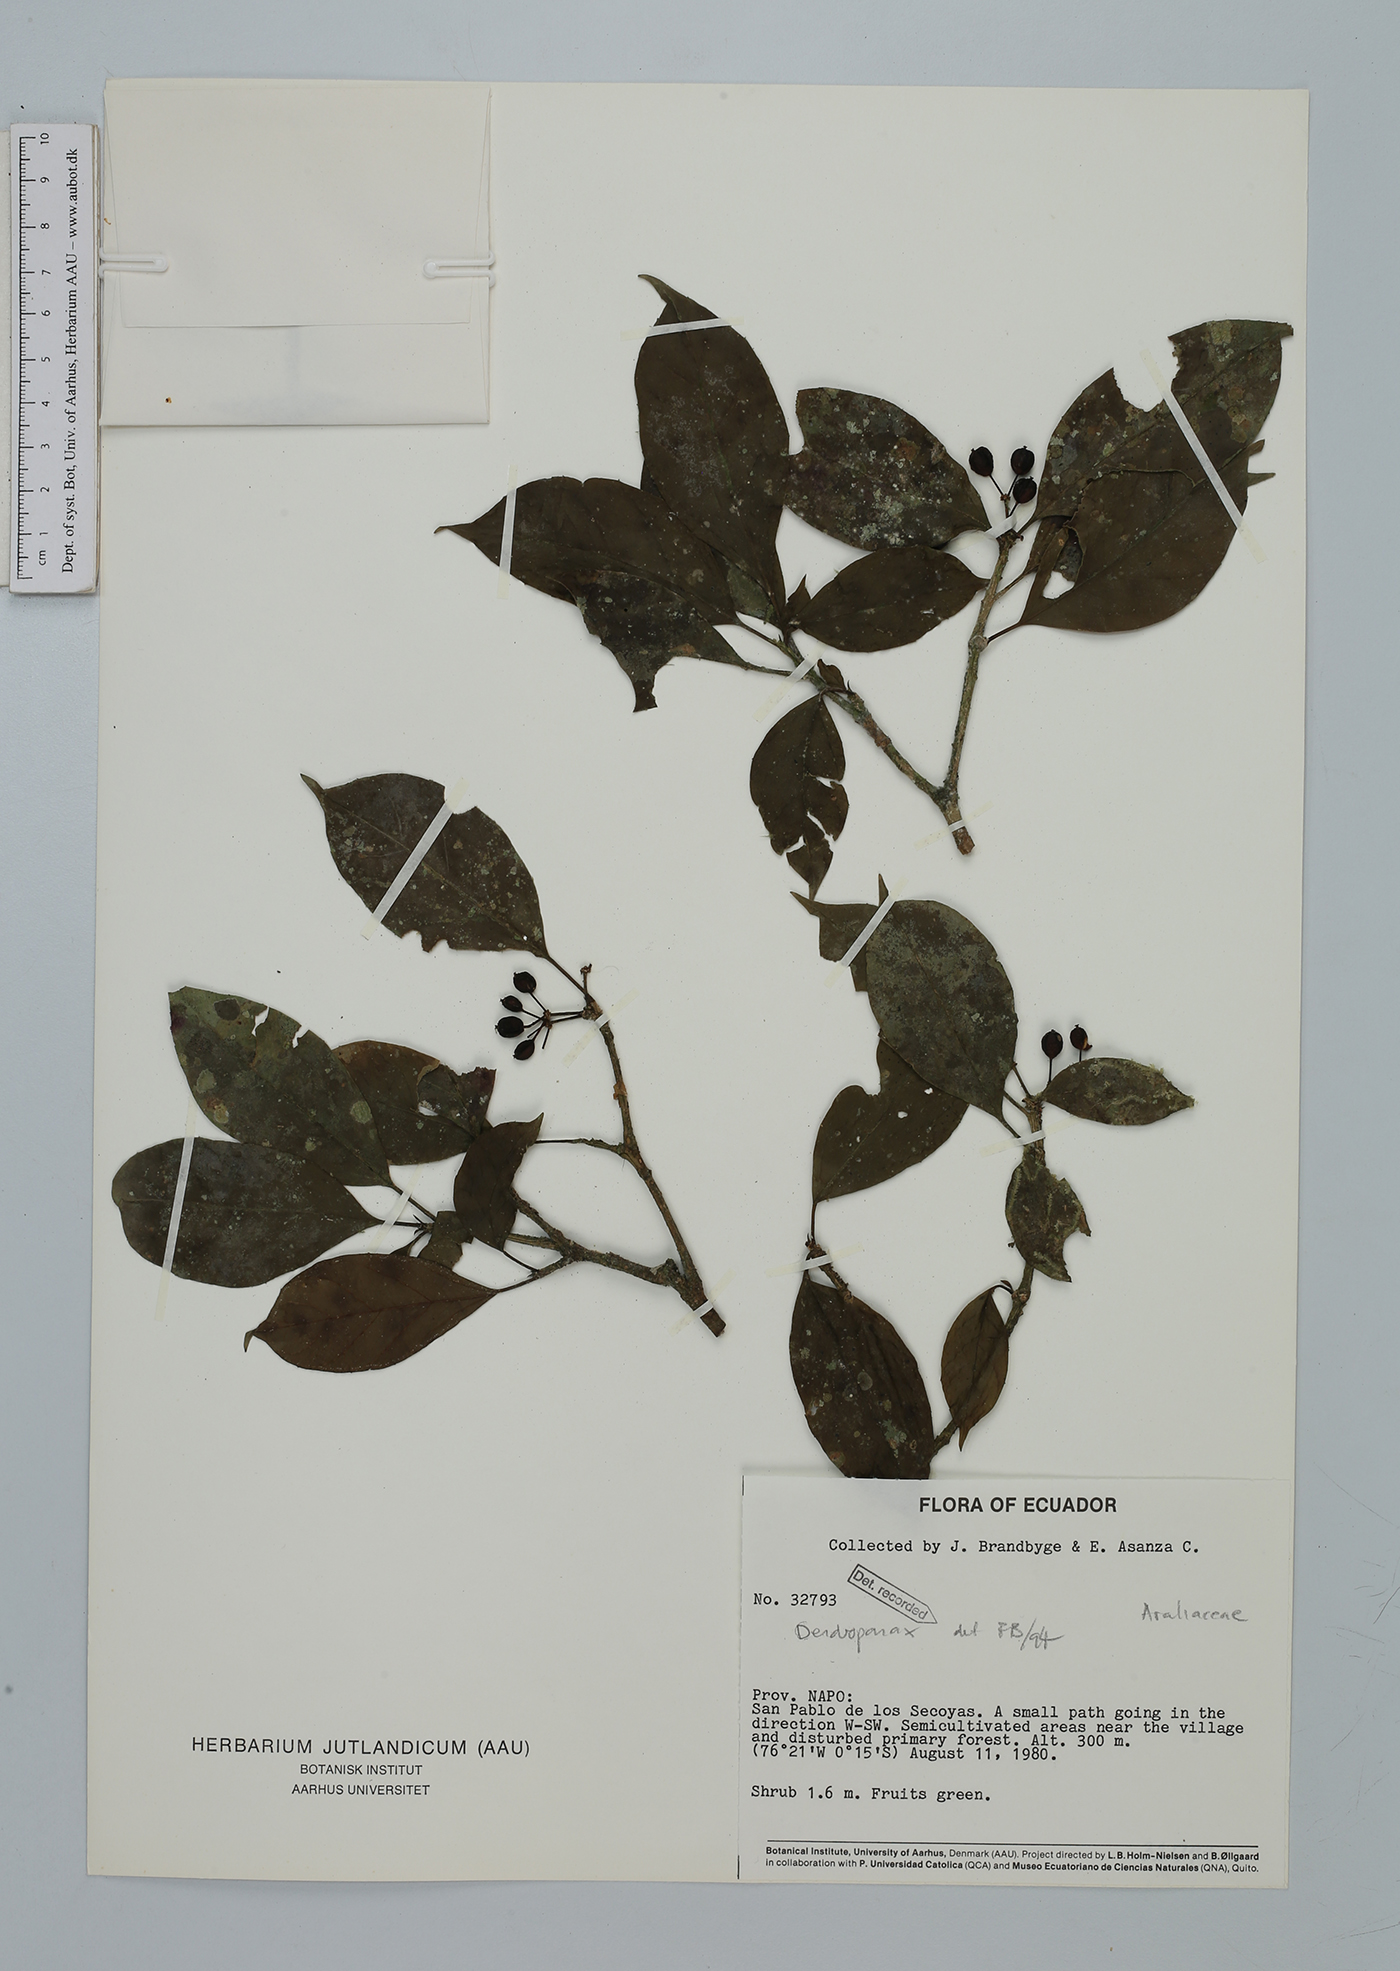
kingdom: Plantae
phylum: Tracheophyta
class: Magnoliopsida
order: Apiales
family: Araliaceae
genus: Dendropanax
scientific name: Dendropanax
